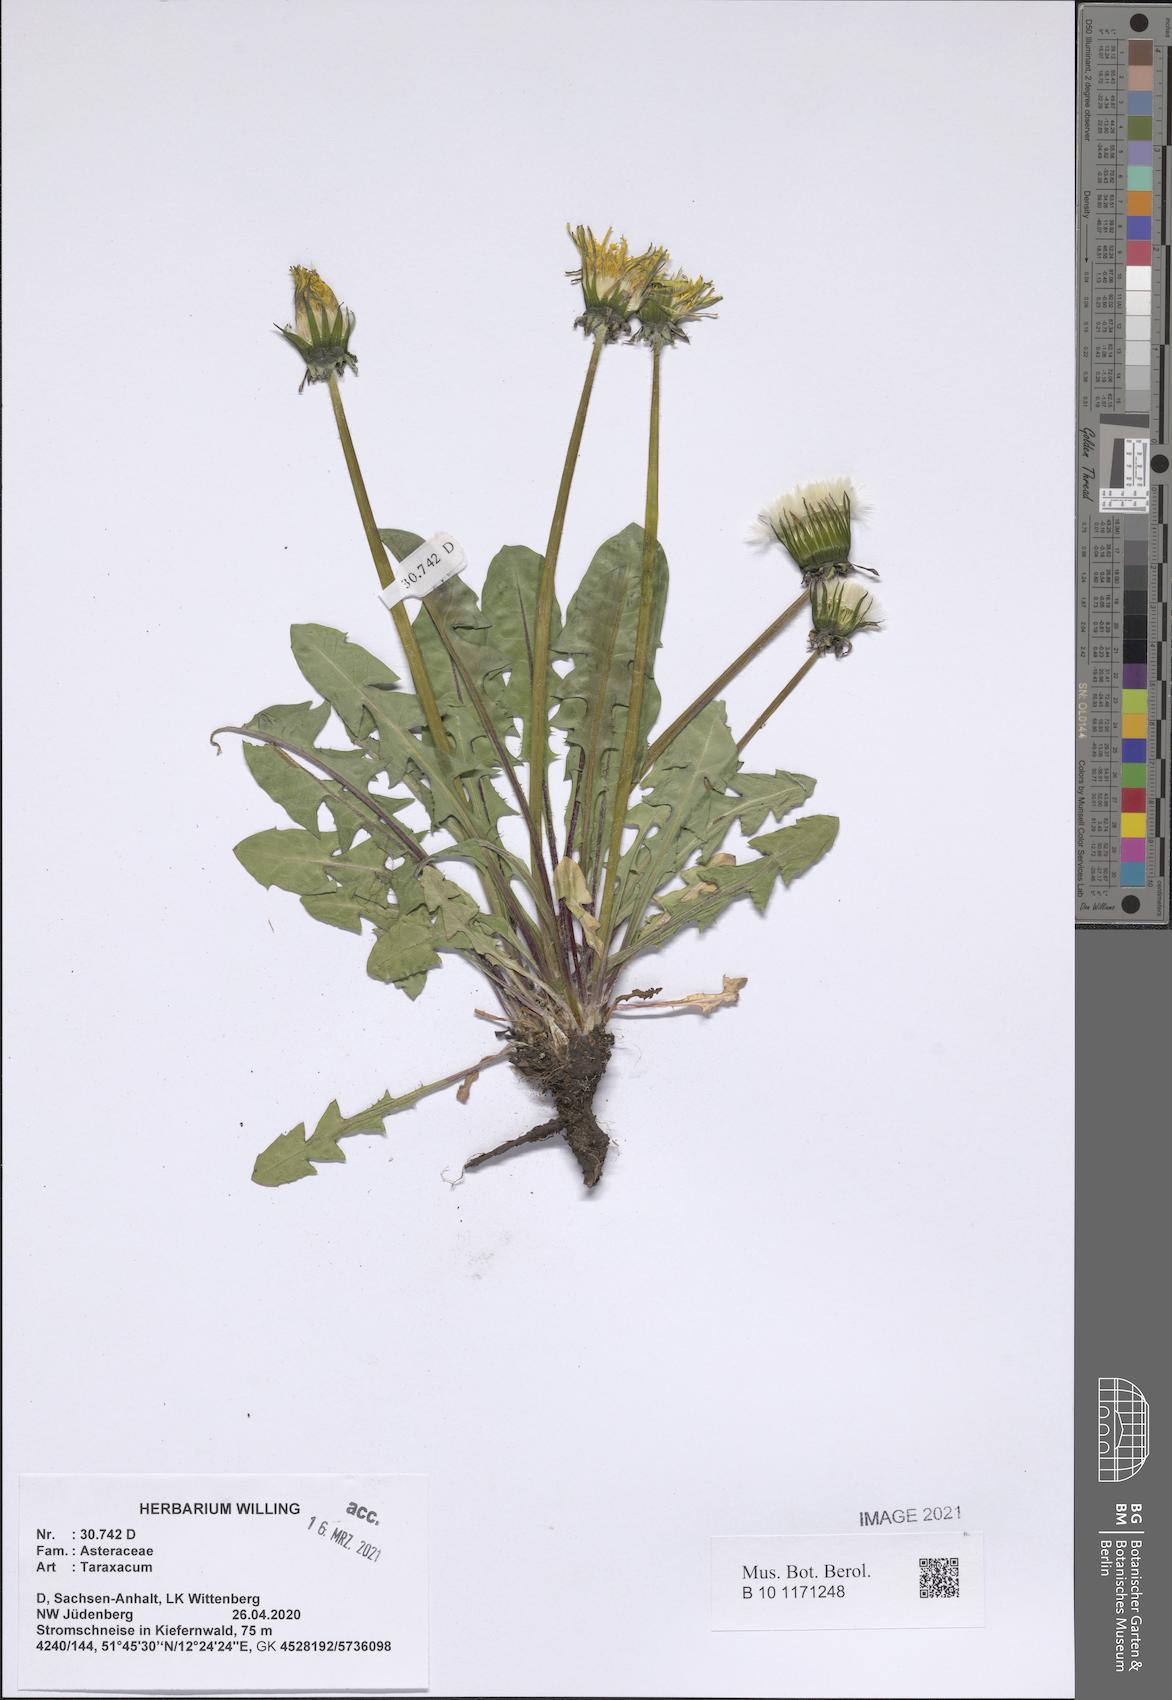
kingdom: Plantae
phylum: Tracheophyta
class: Magnoliopsida
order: Asterales
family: Asteraceae
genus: Taraxacum
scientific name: Taraxacum
